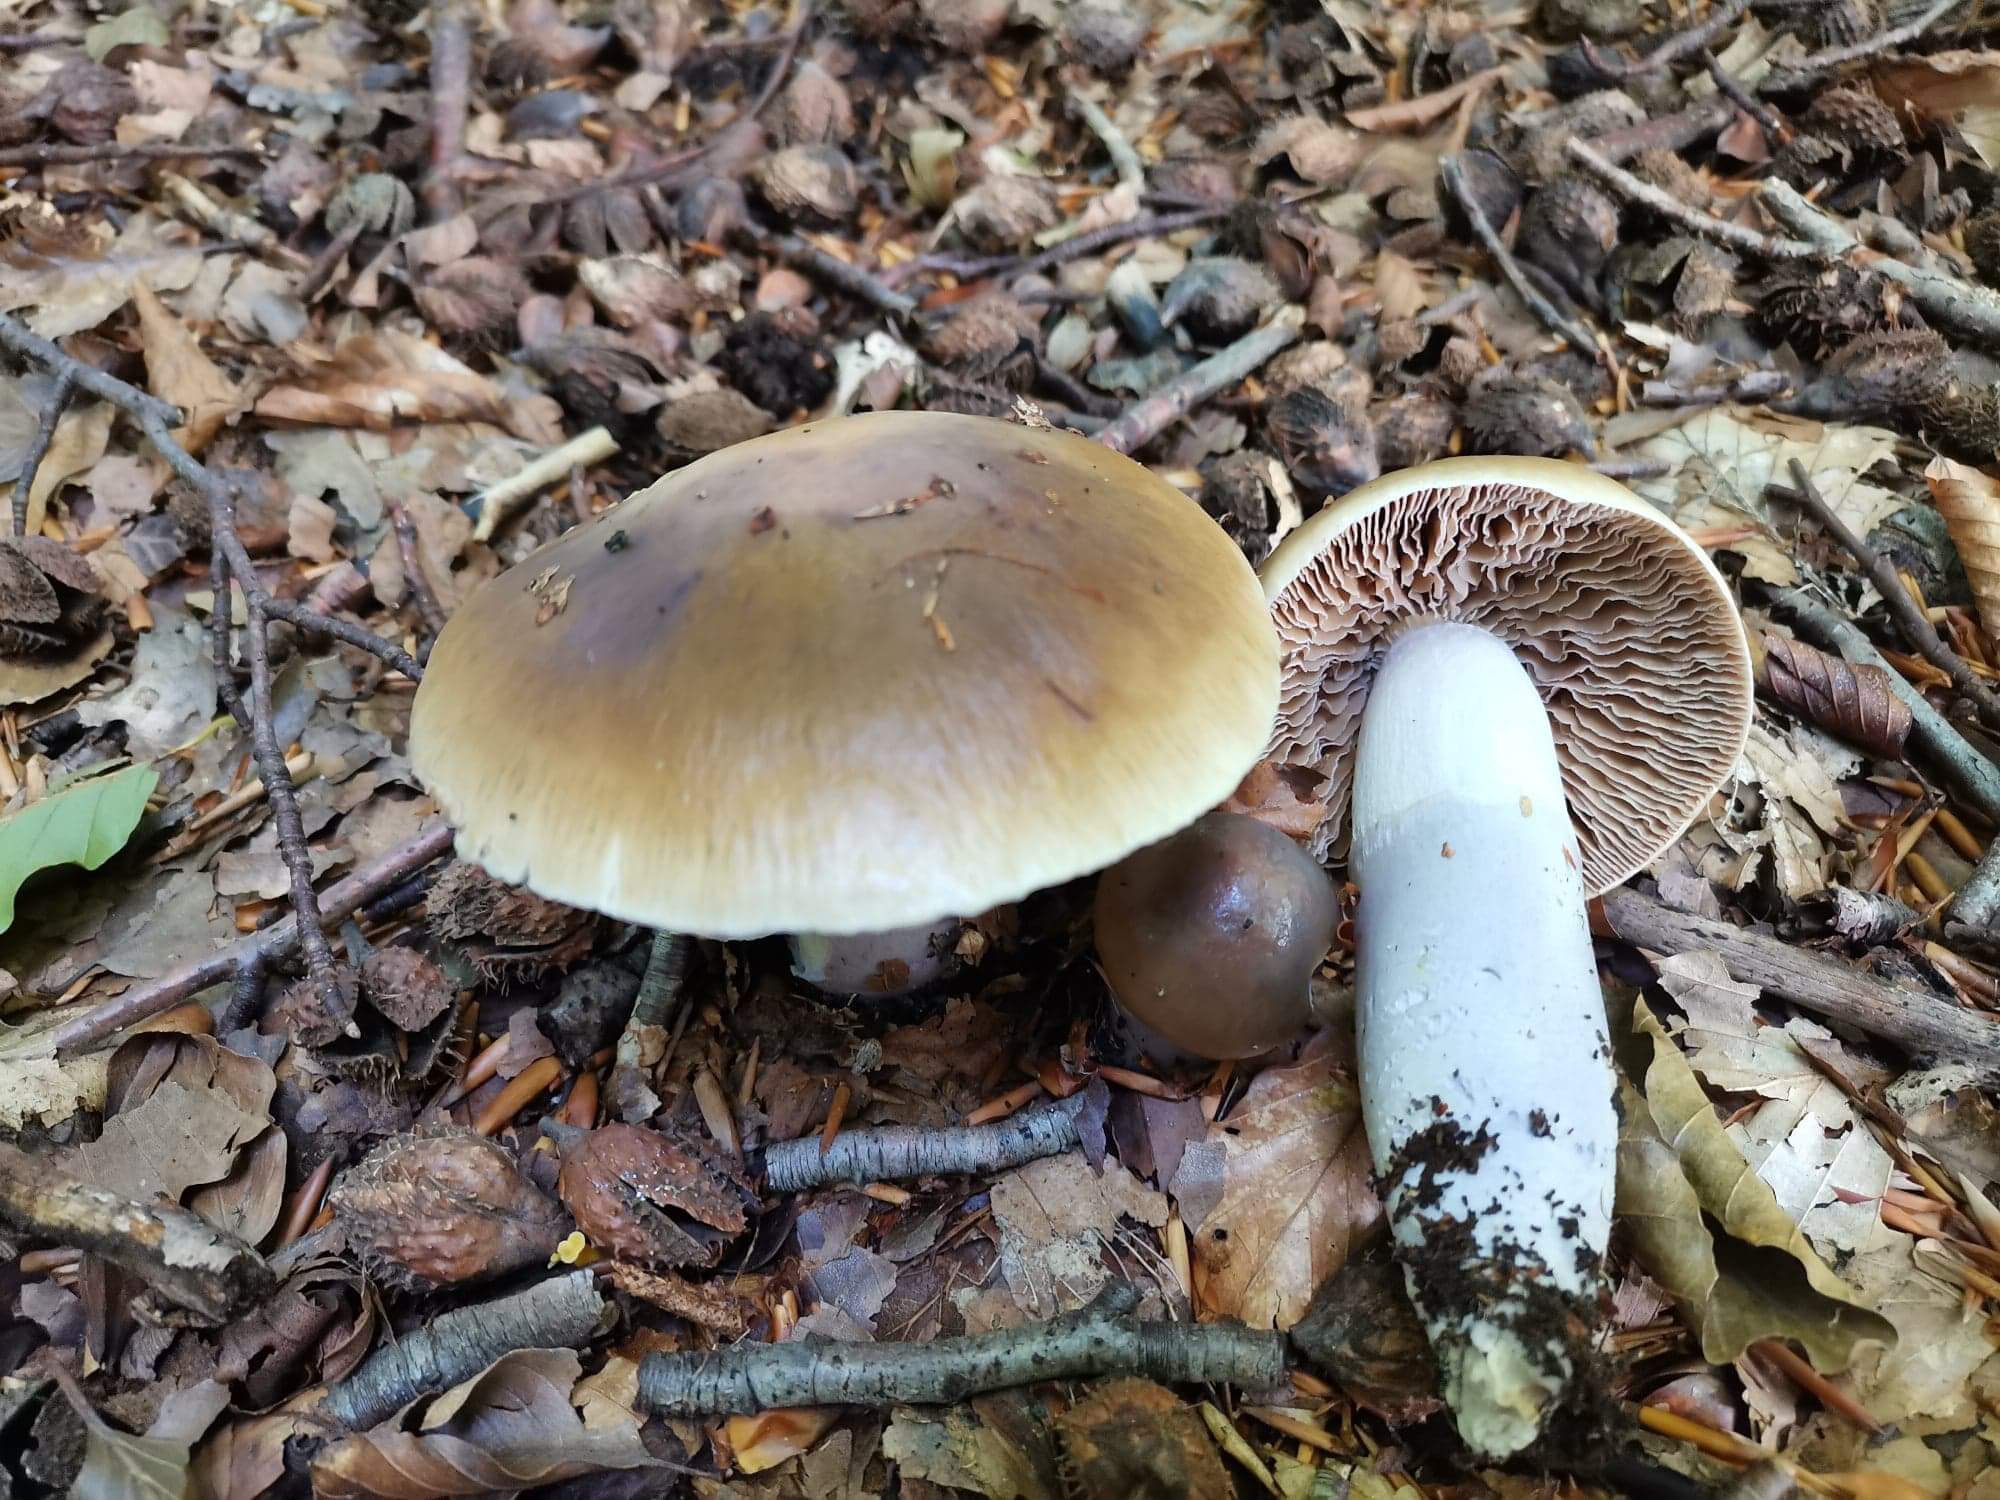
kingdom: Fungi
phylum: Basidiomycota
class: Agaricomycetes
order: Agaricales
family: Cortinariaceae
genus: Cortinarius
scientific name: Cortinarius elatior
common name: høj slørhat
